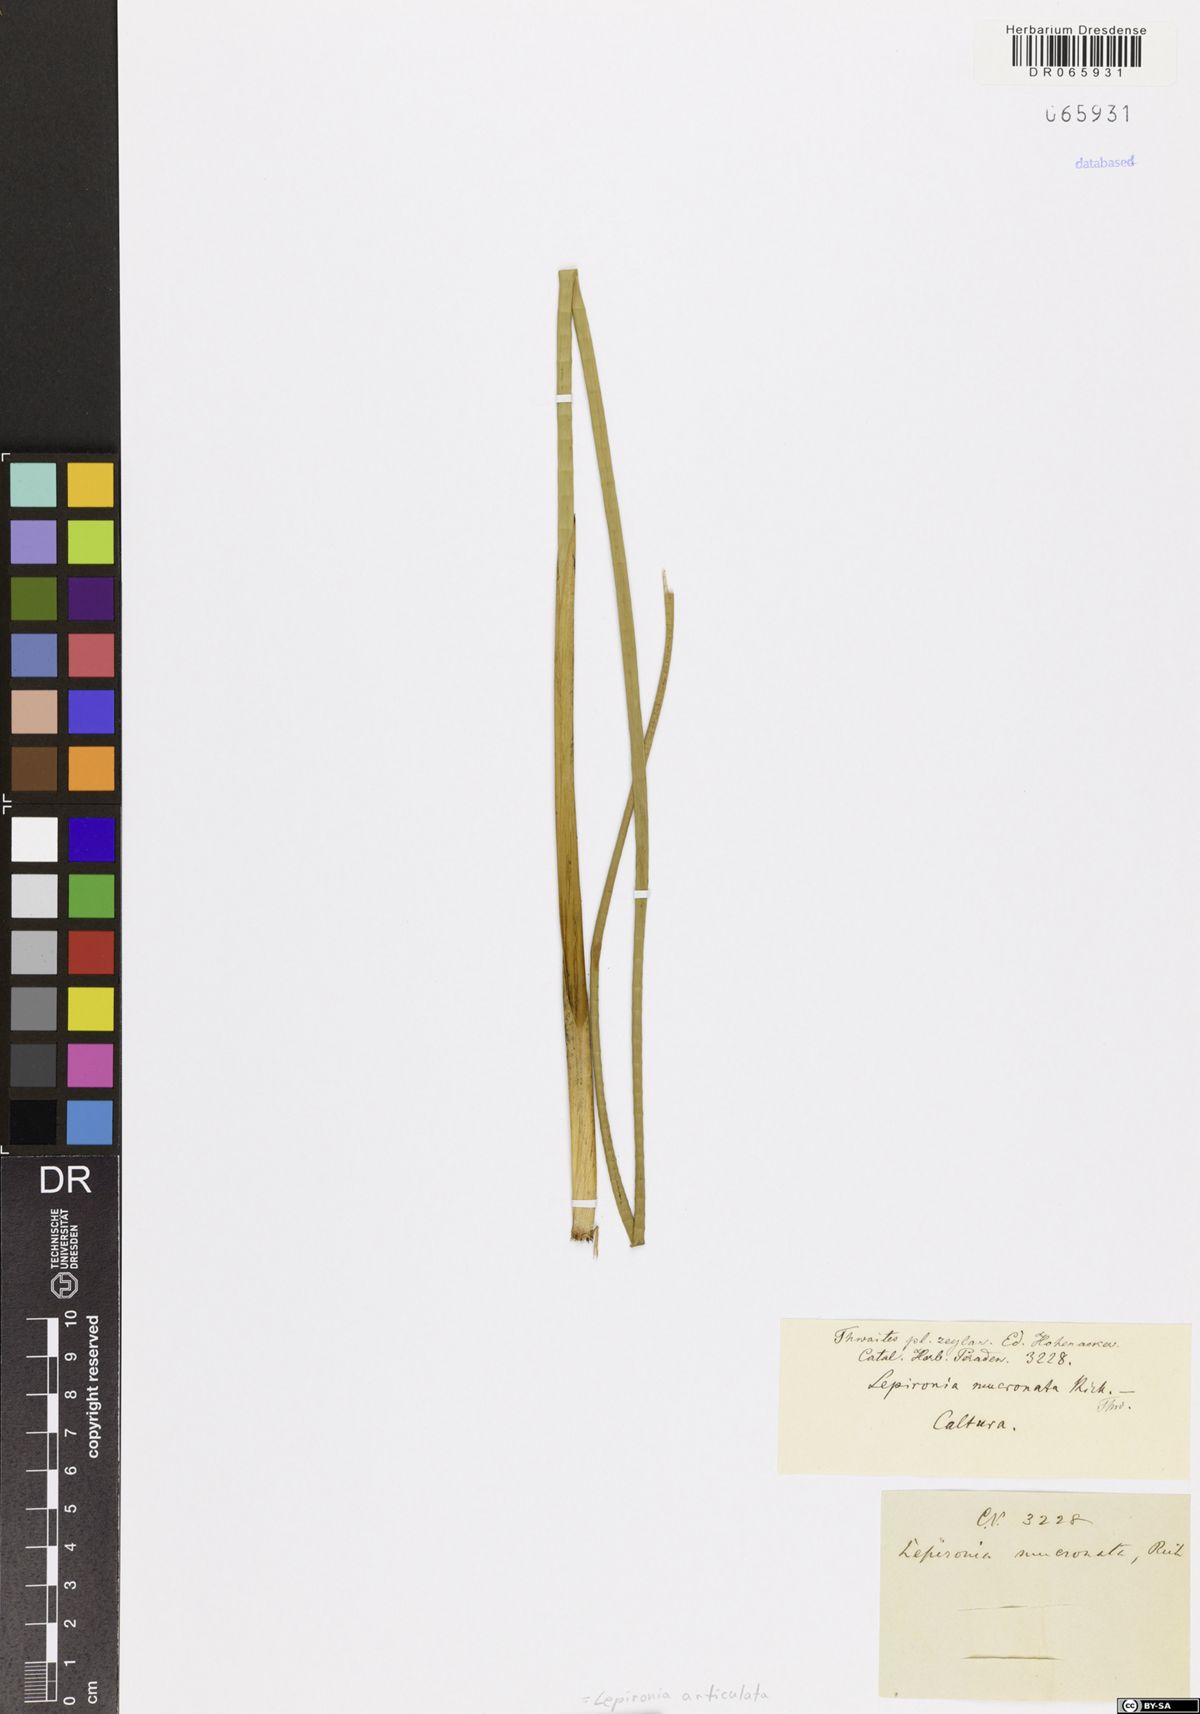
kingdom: Plantae
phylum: Tracheophyta
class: Liliopsida
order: Poales
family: Cyperaceae
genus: Lepironia
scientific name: Lepironia articulata
